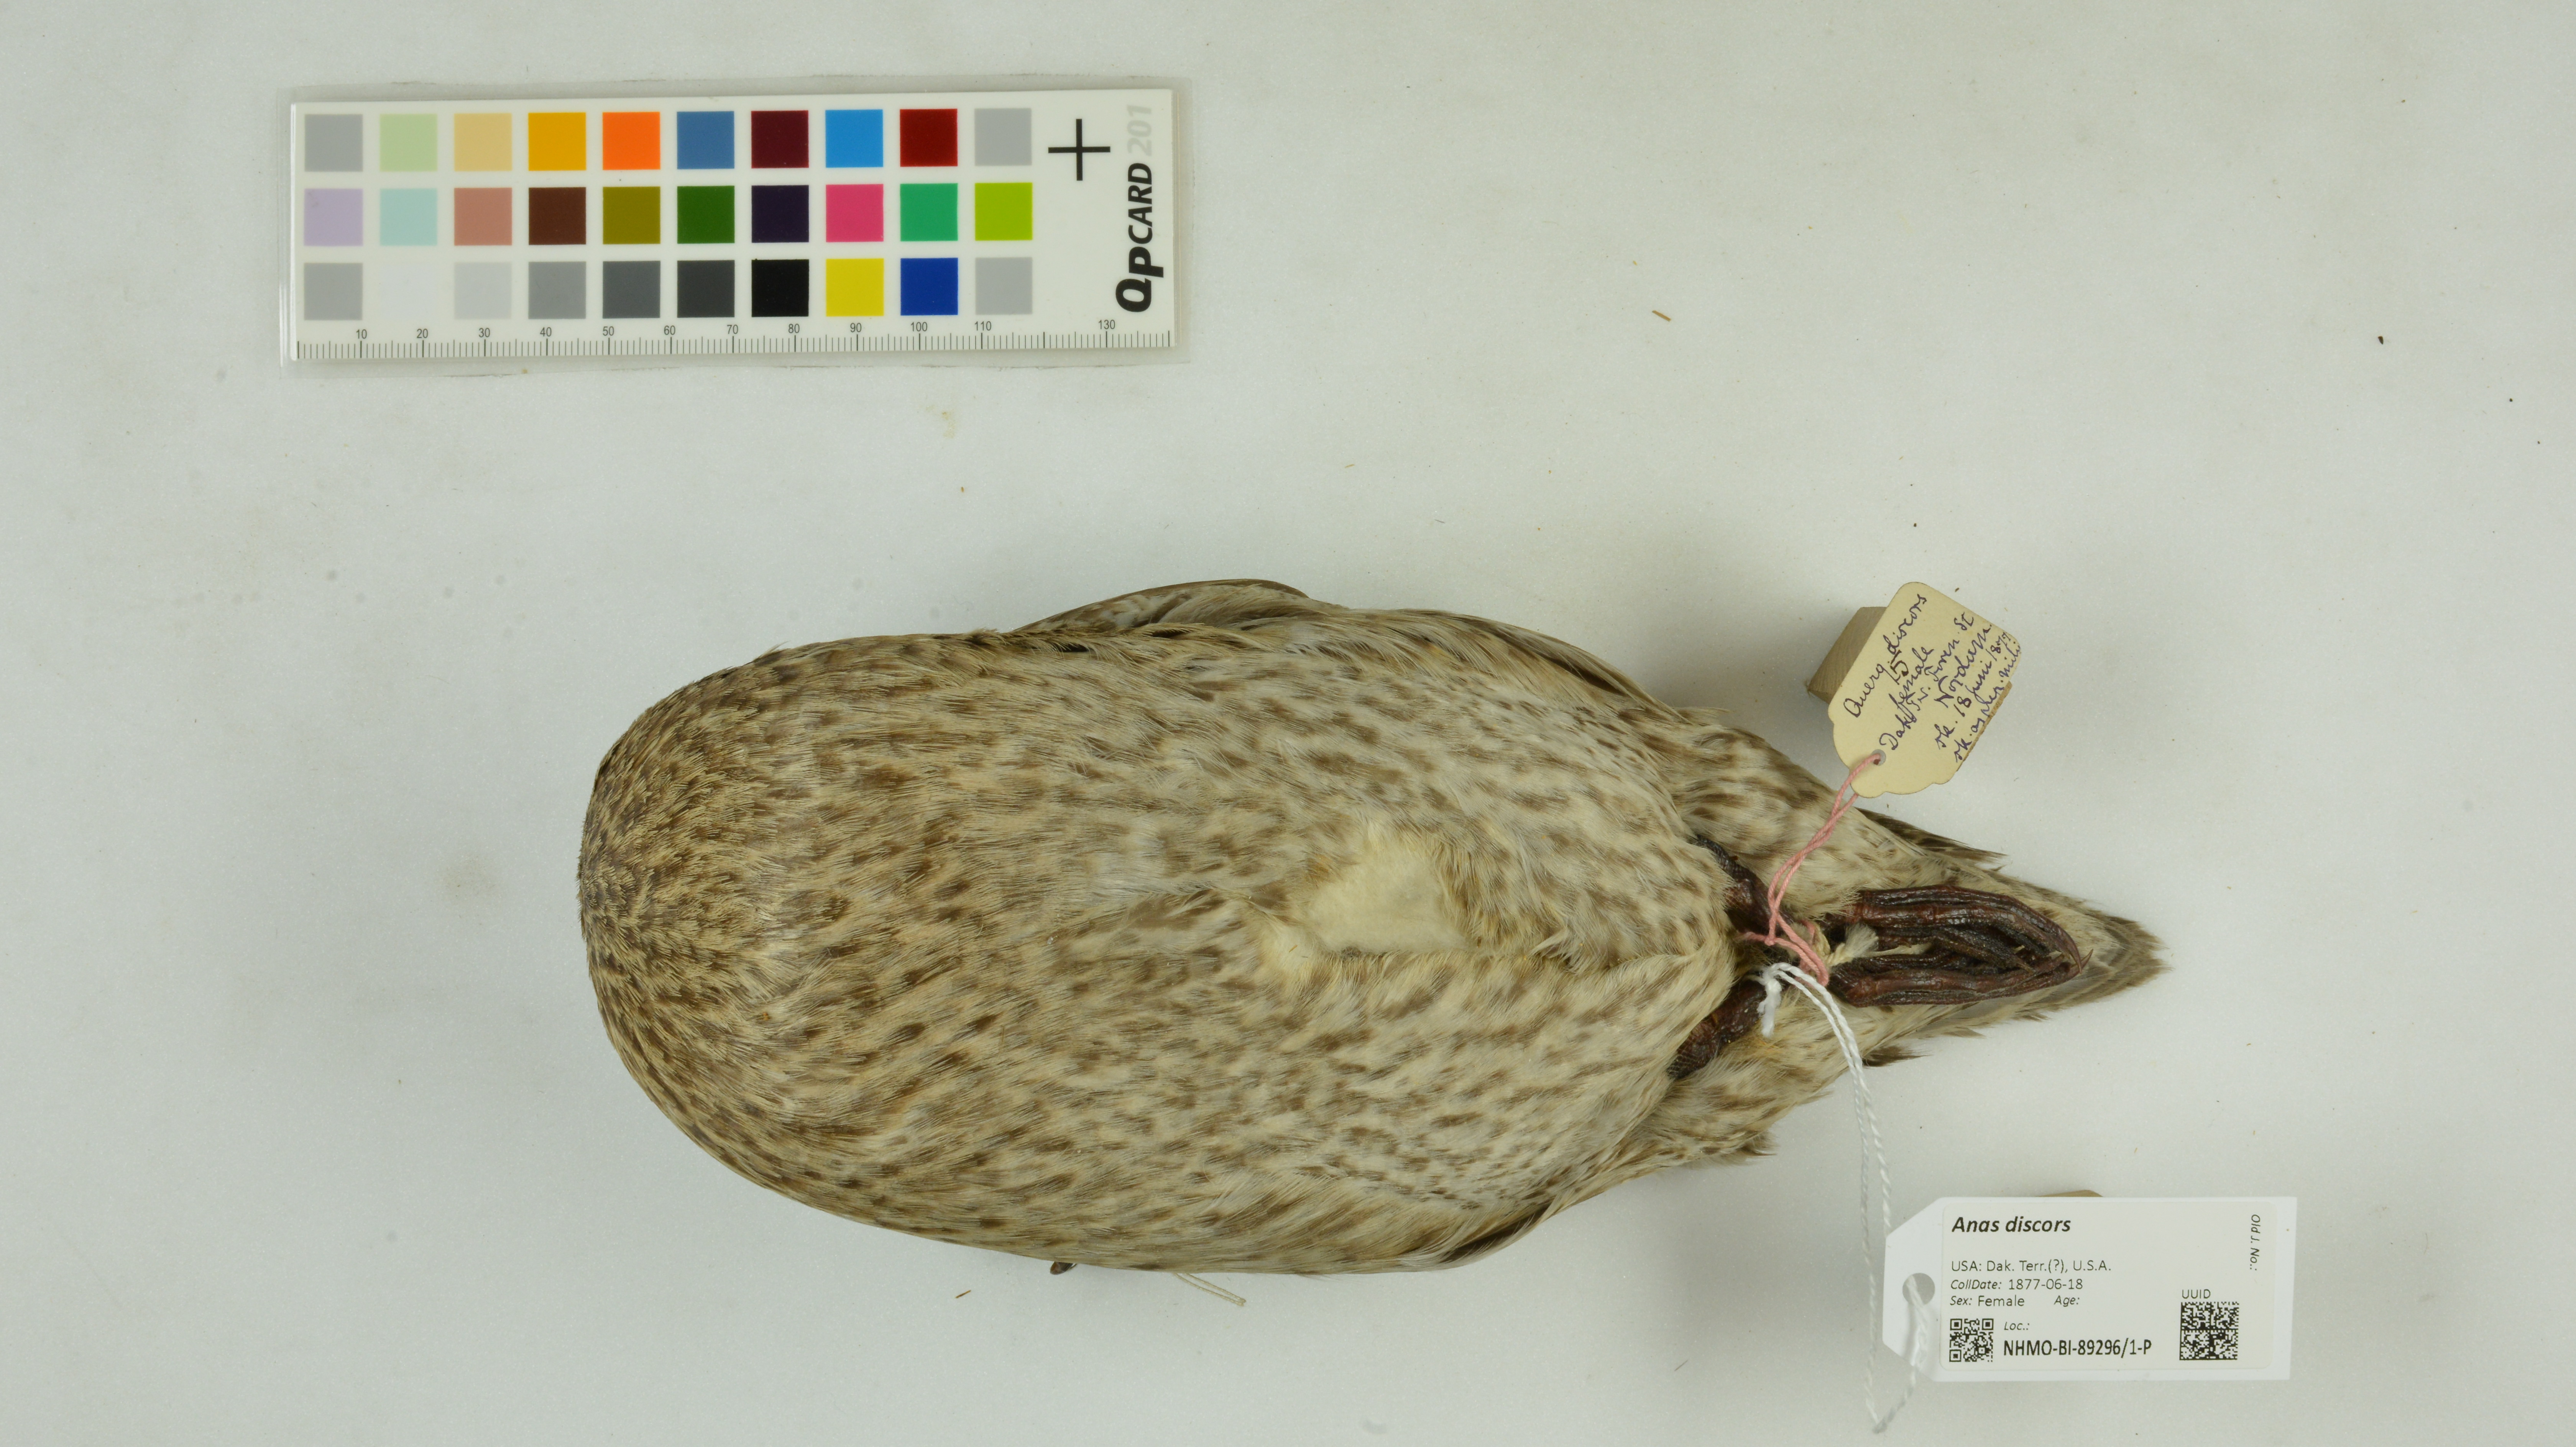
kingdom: Animalia
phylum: Chordata
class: Aves
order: Anseriformes
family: Anatidae
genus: Spatula
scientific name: Spatula discors
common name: Blue-winged teal
